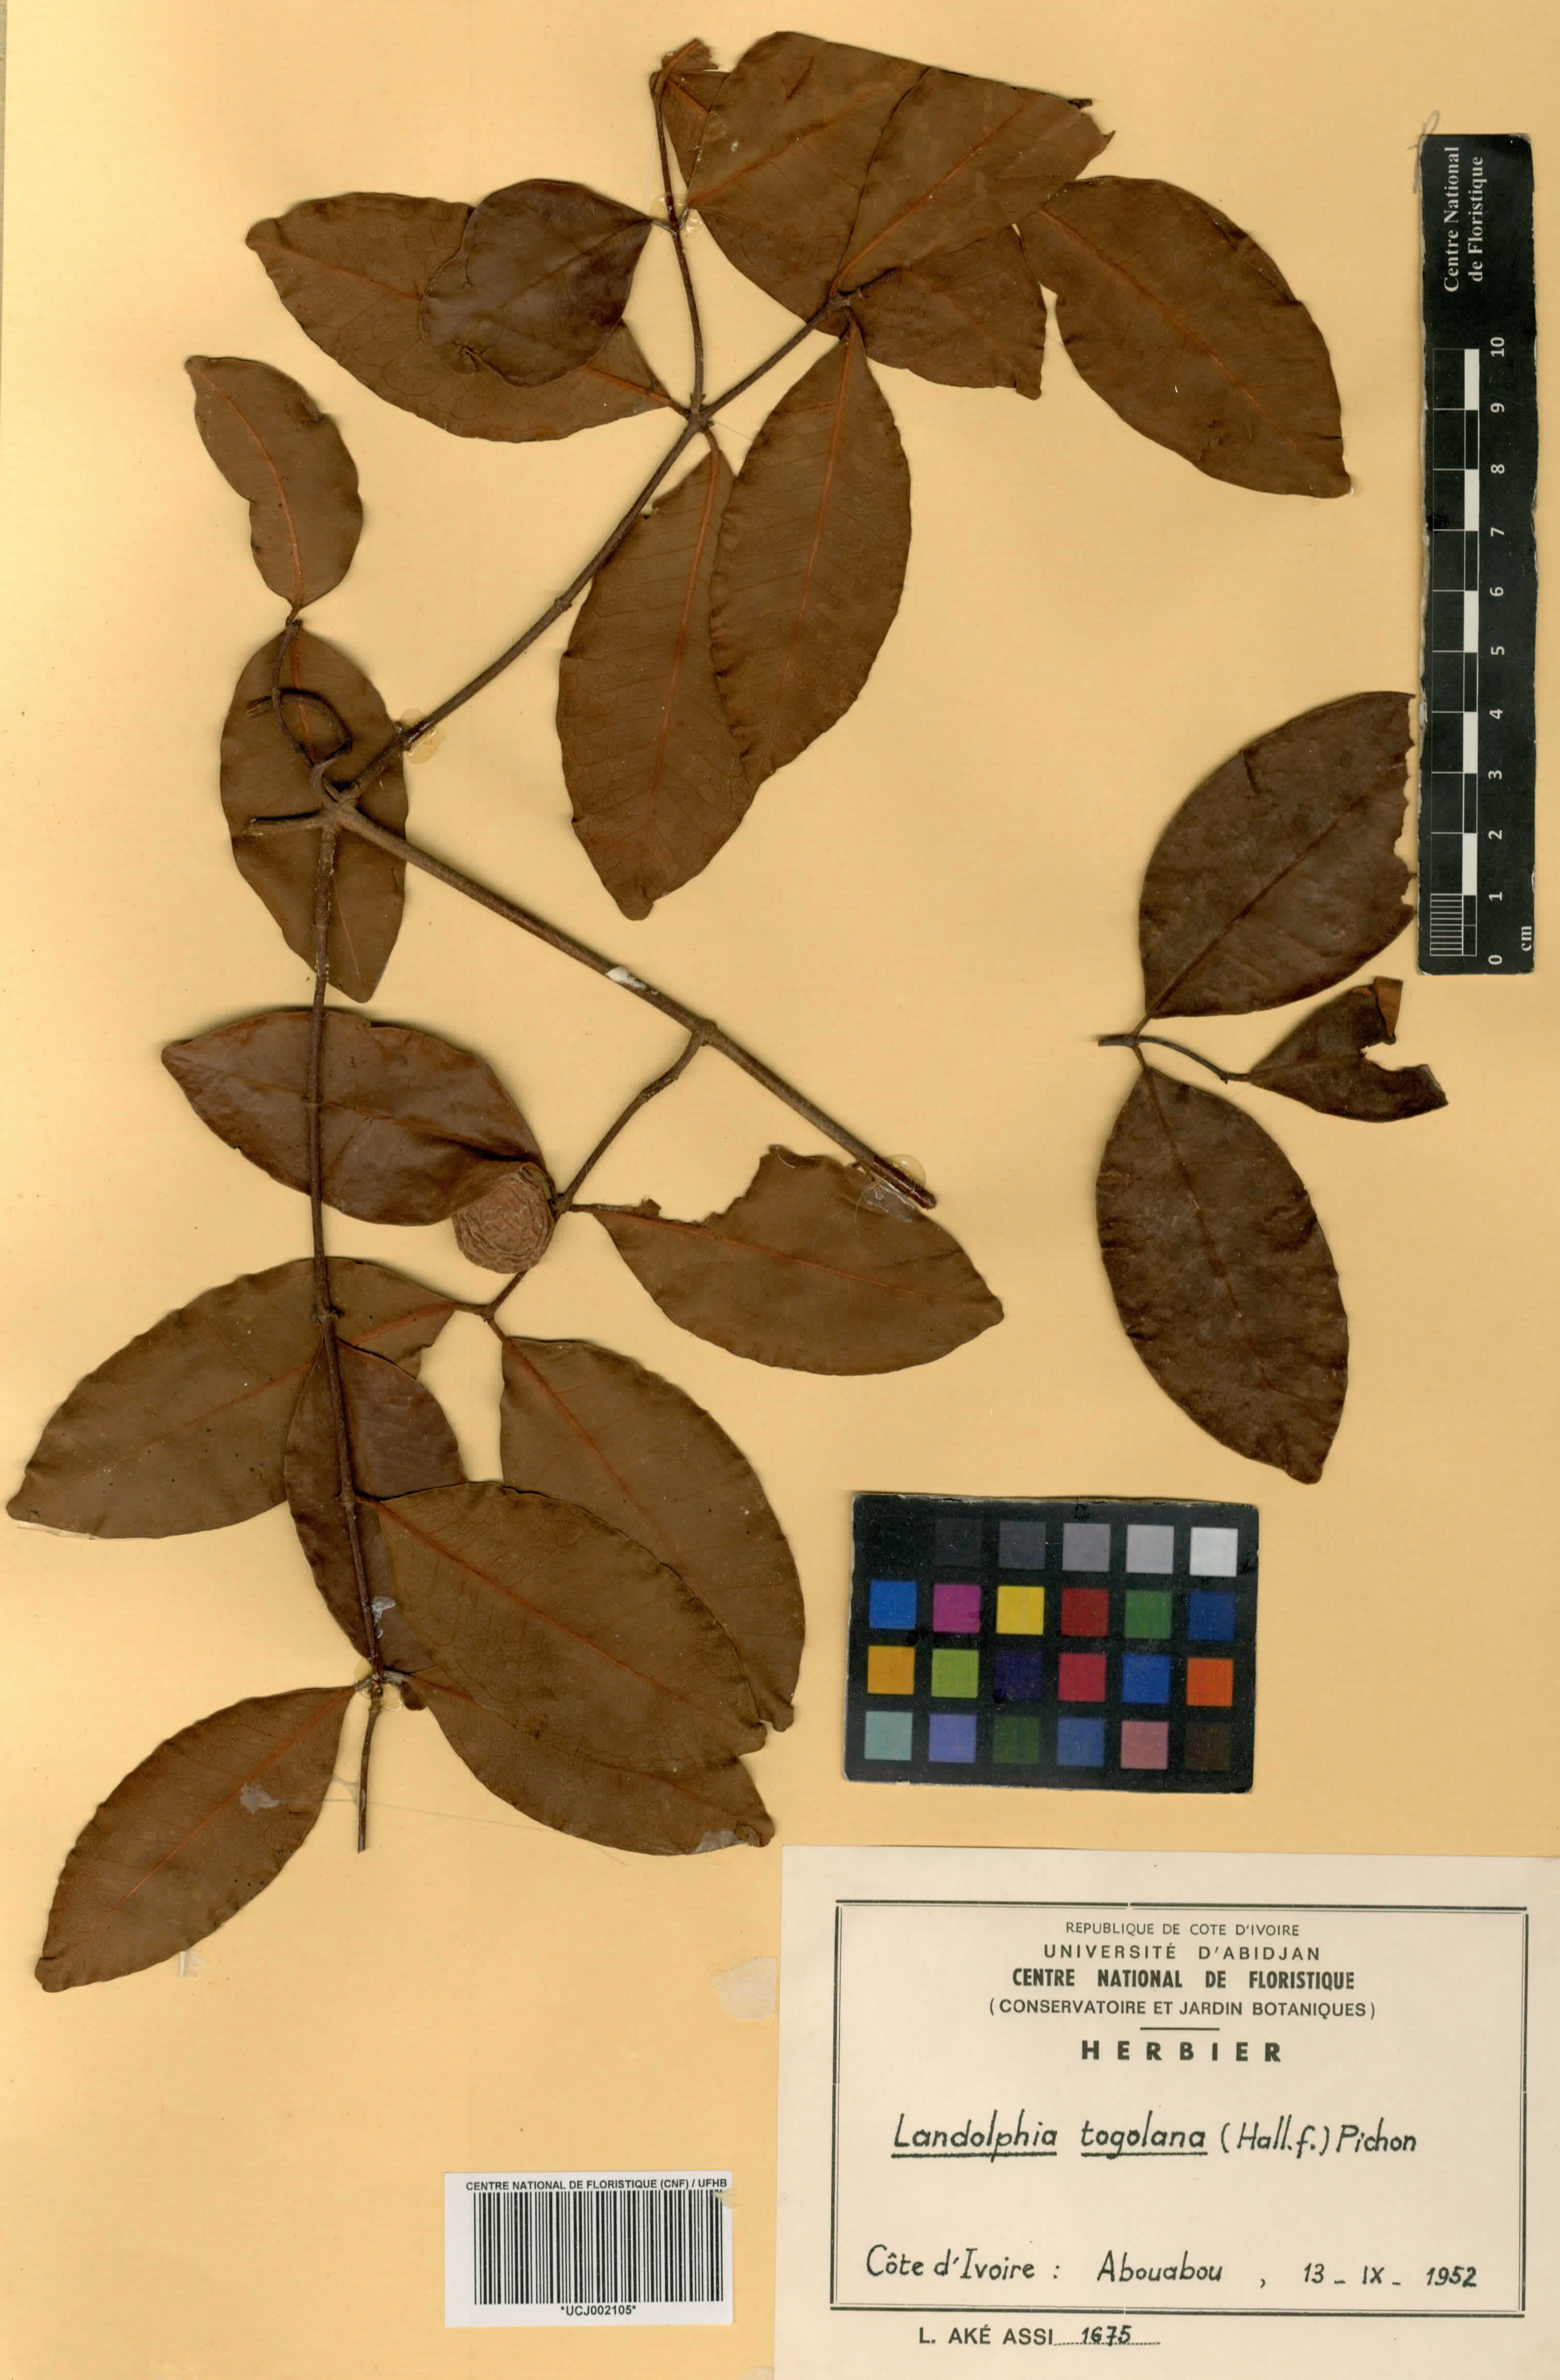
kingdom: Plantae
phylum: Tracheophyta
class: Magnoliopsida
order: Gentianales
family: Apocynaceae
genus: Landolphia
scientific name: Landolphia togolana
